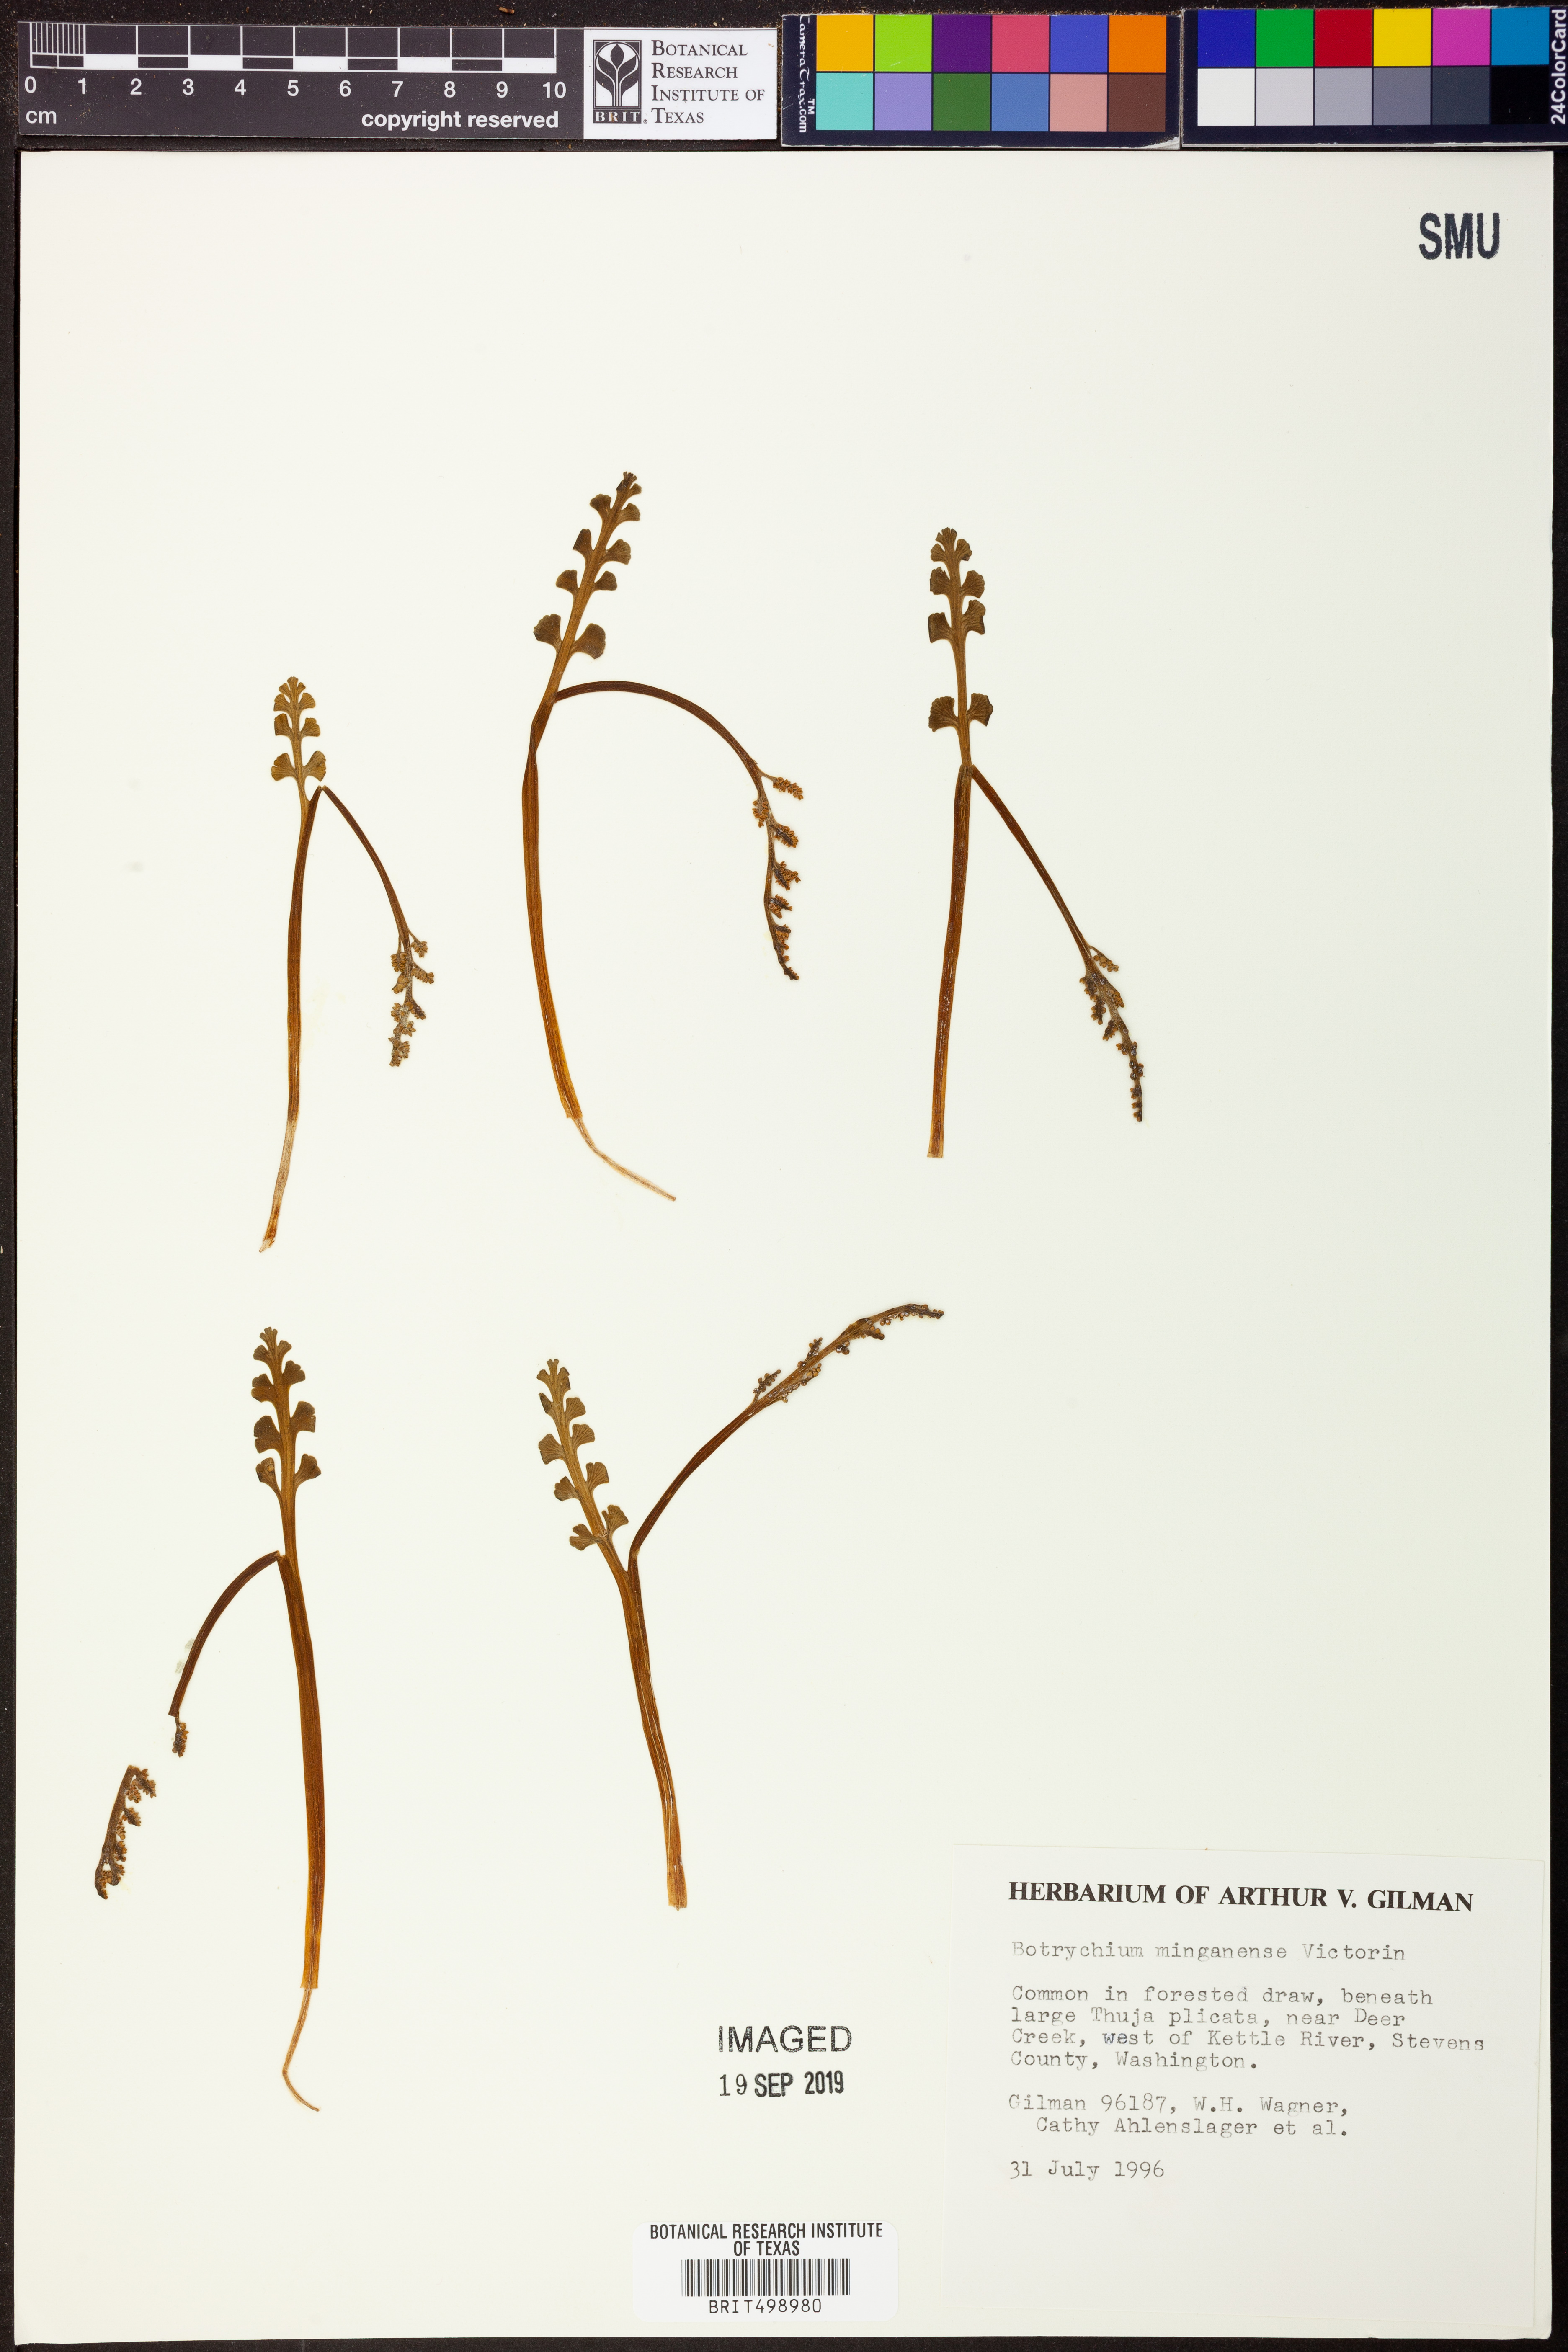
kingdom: Plantae
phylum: Tracheophyta
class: Polypodiopsida
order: Ophioglossales
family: Ophioglossaceae
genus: Botrychium
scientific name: Botrychium minganense
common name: Mingan grapefern
